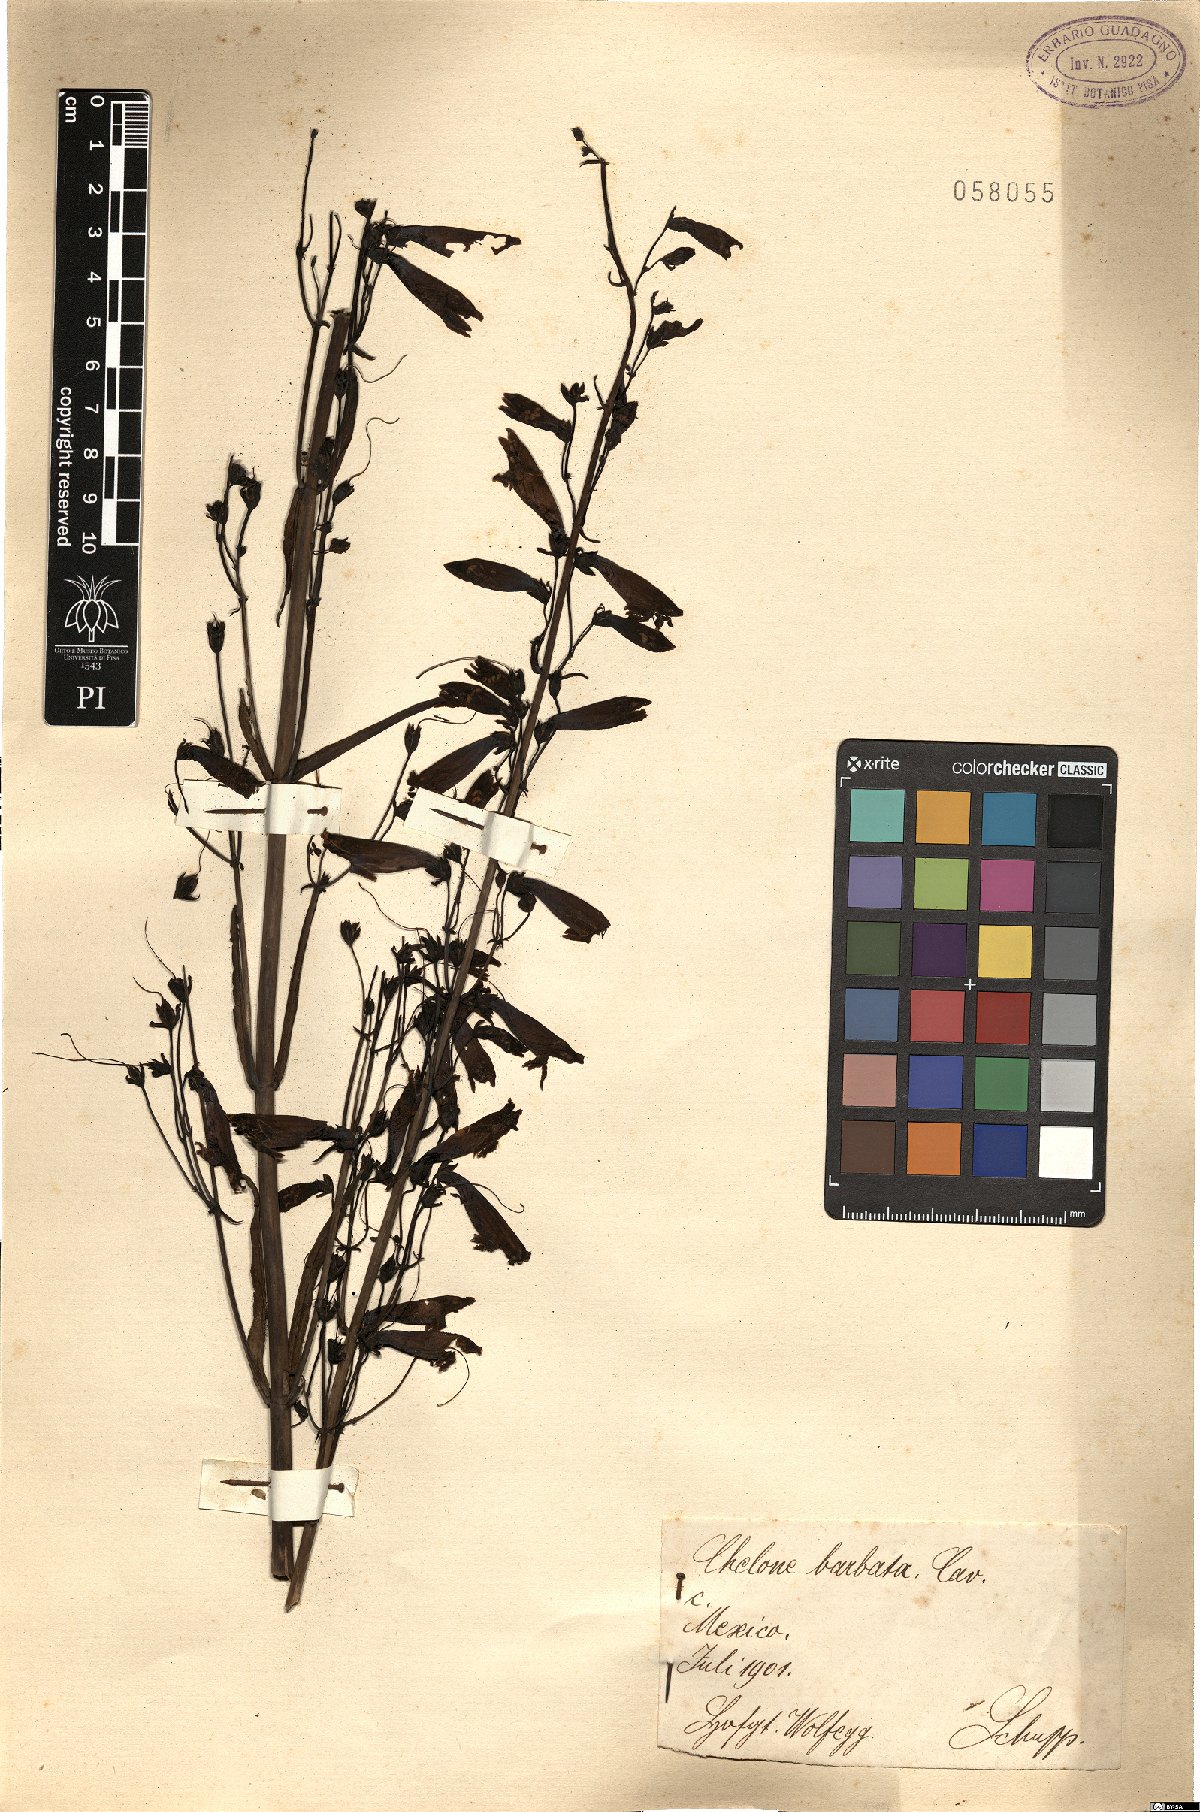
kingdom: Plantae
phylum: Tracheophyta
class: Magnoliopsida
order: Lamiales
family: Plantaginaceae
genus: Penstemon
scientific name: Penstemon barbatus
